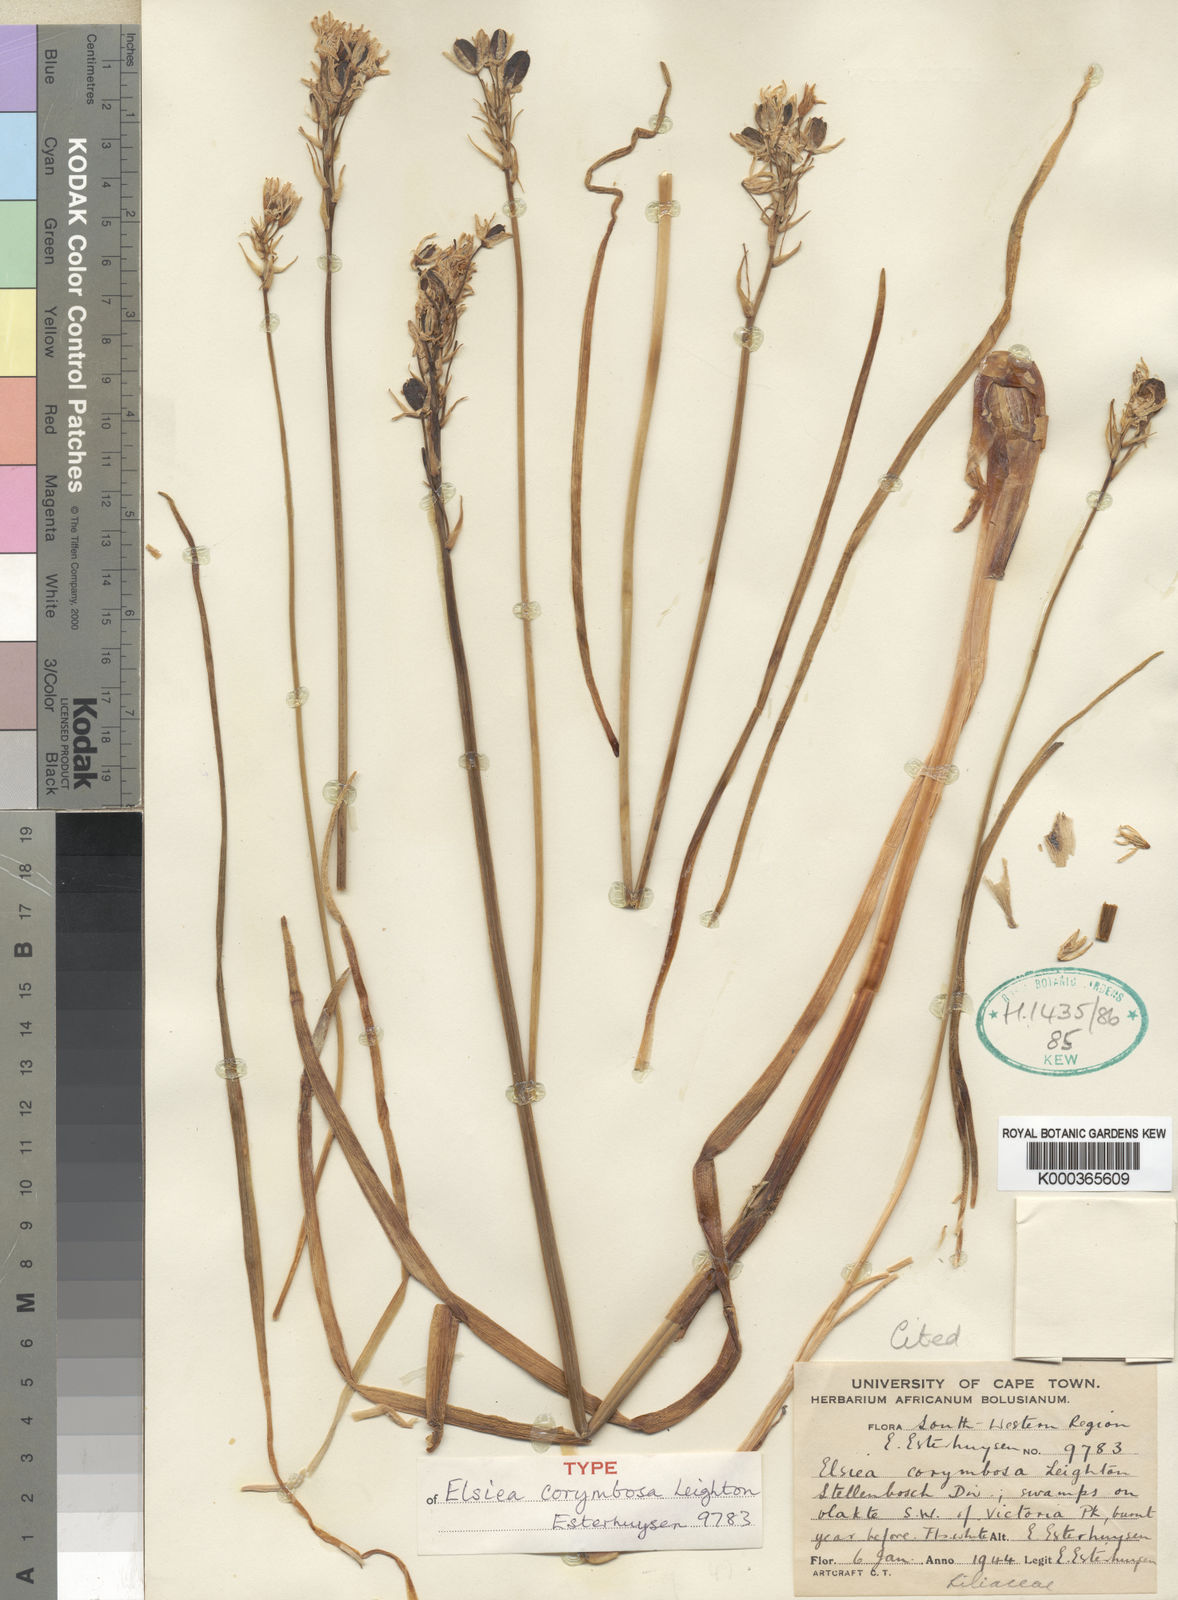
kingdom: Plantae
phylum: Tracheophyta
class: Liliopsida
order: Asparagales
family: Asparagaceae
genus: Ornithogalum
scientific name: Ornithogalum esterhuyseniae
